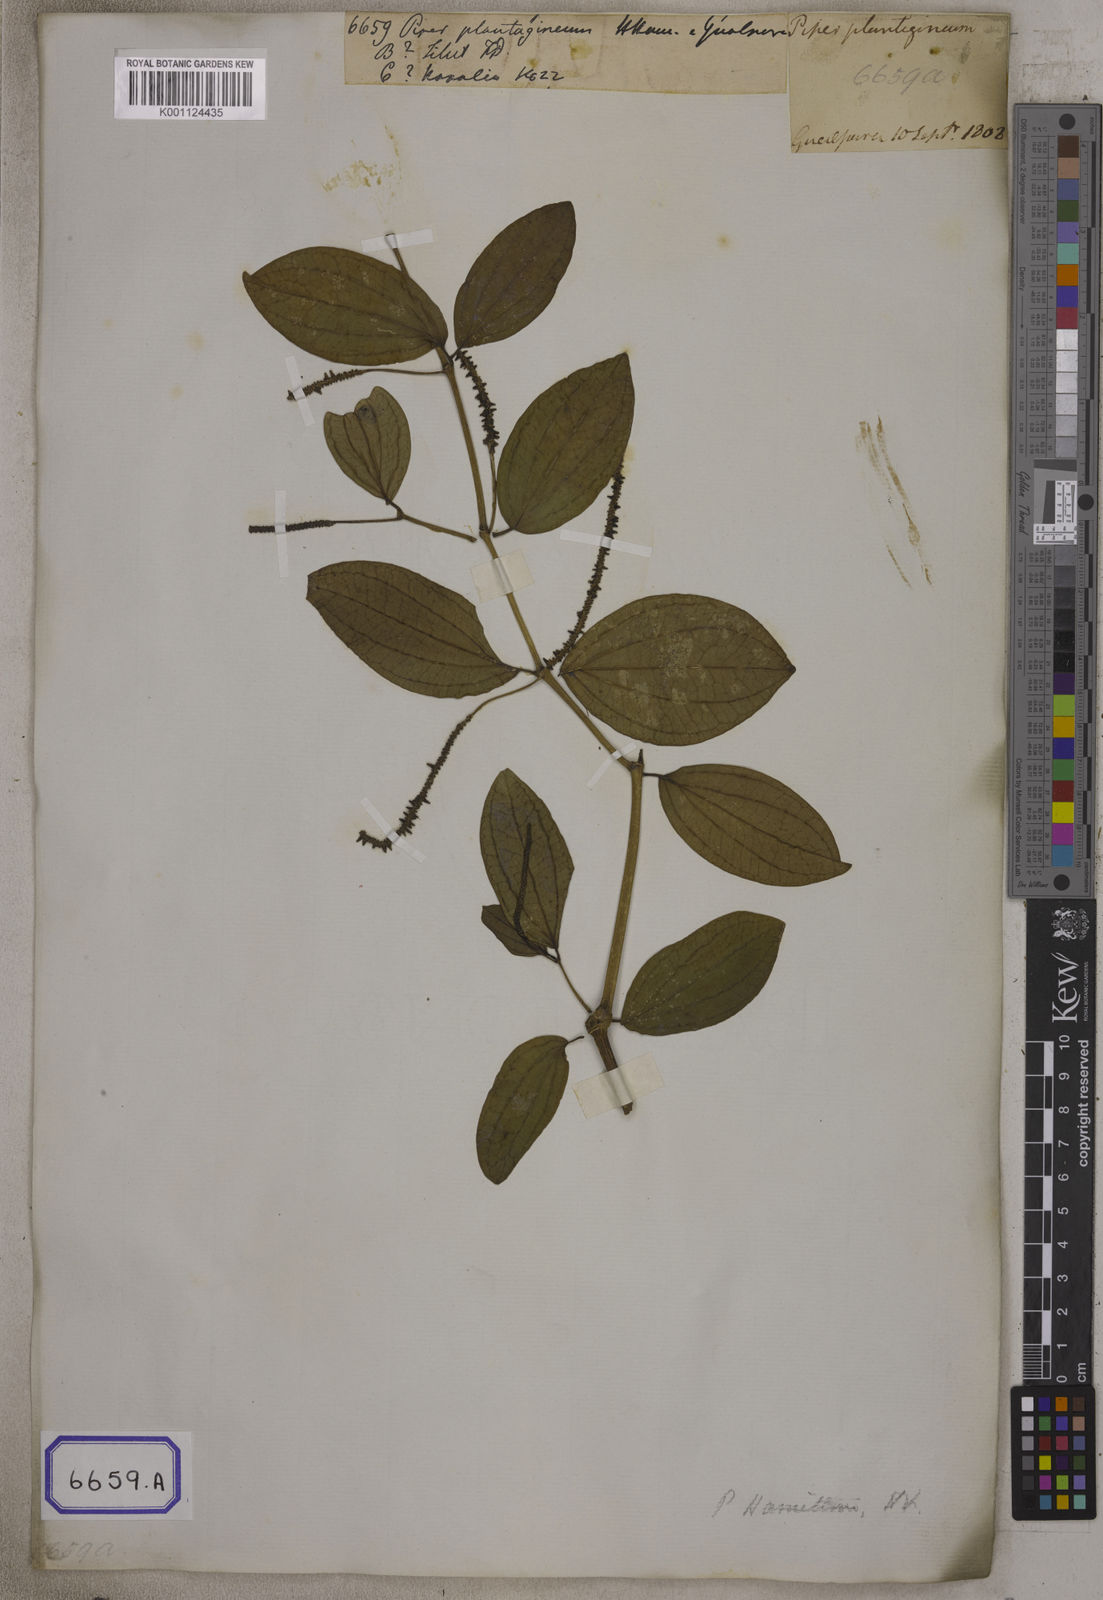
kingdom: Plantae
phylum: Tracheophyta
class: Magnoliopsida
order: Piperales
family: Piperaceae
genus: Piper
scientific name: Piper hamiltonii
